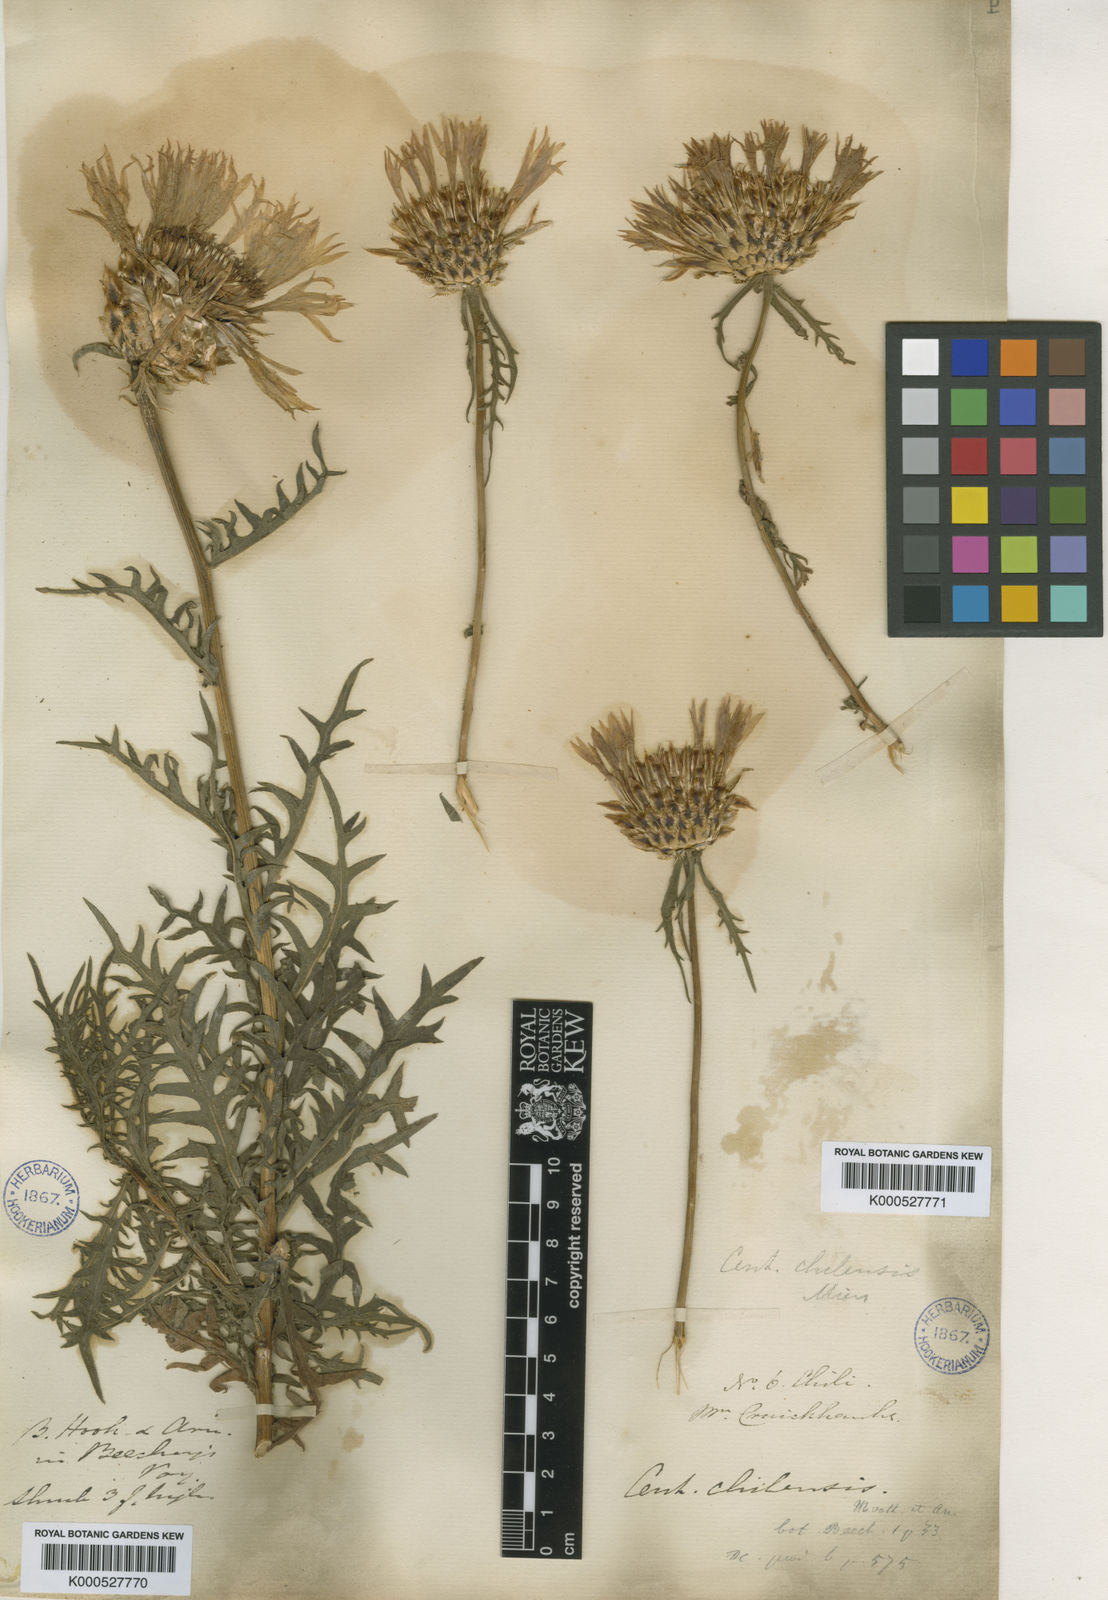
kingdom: Plantae
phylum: Tracheophyta
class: Magnoliopsida
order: Asterales
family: Asteraceae
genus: Plectocephalus
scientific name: Plectocephalus chilensis
